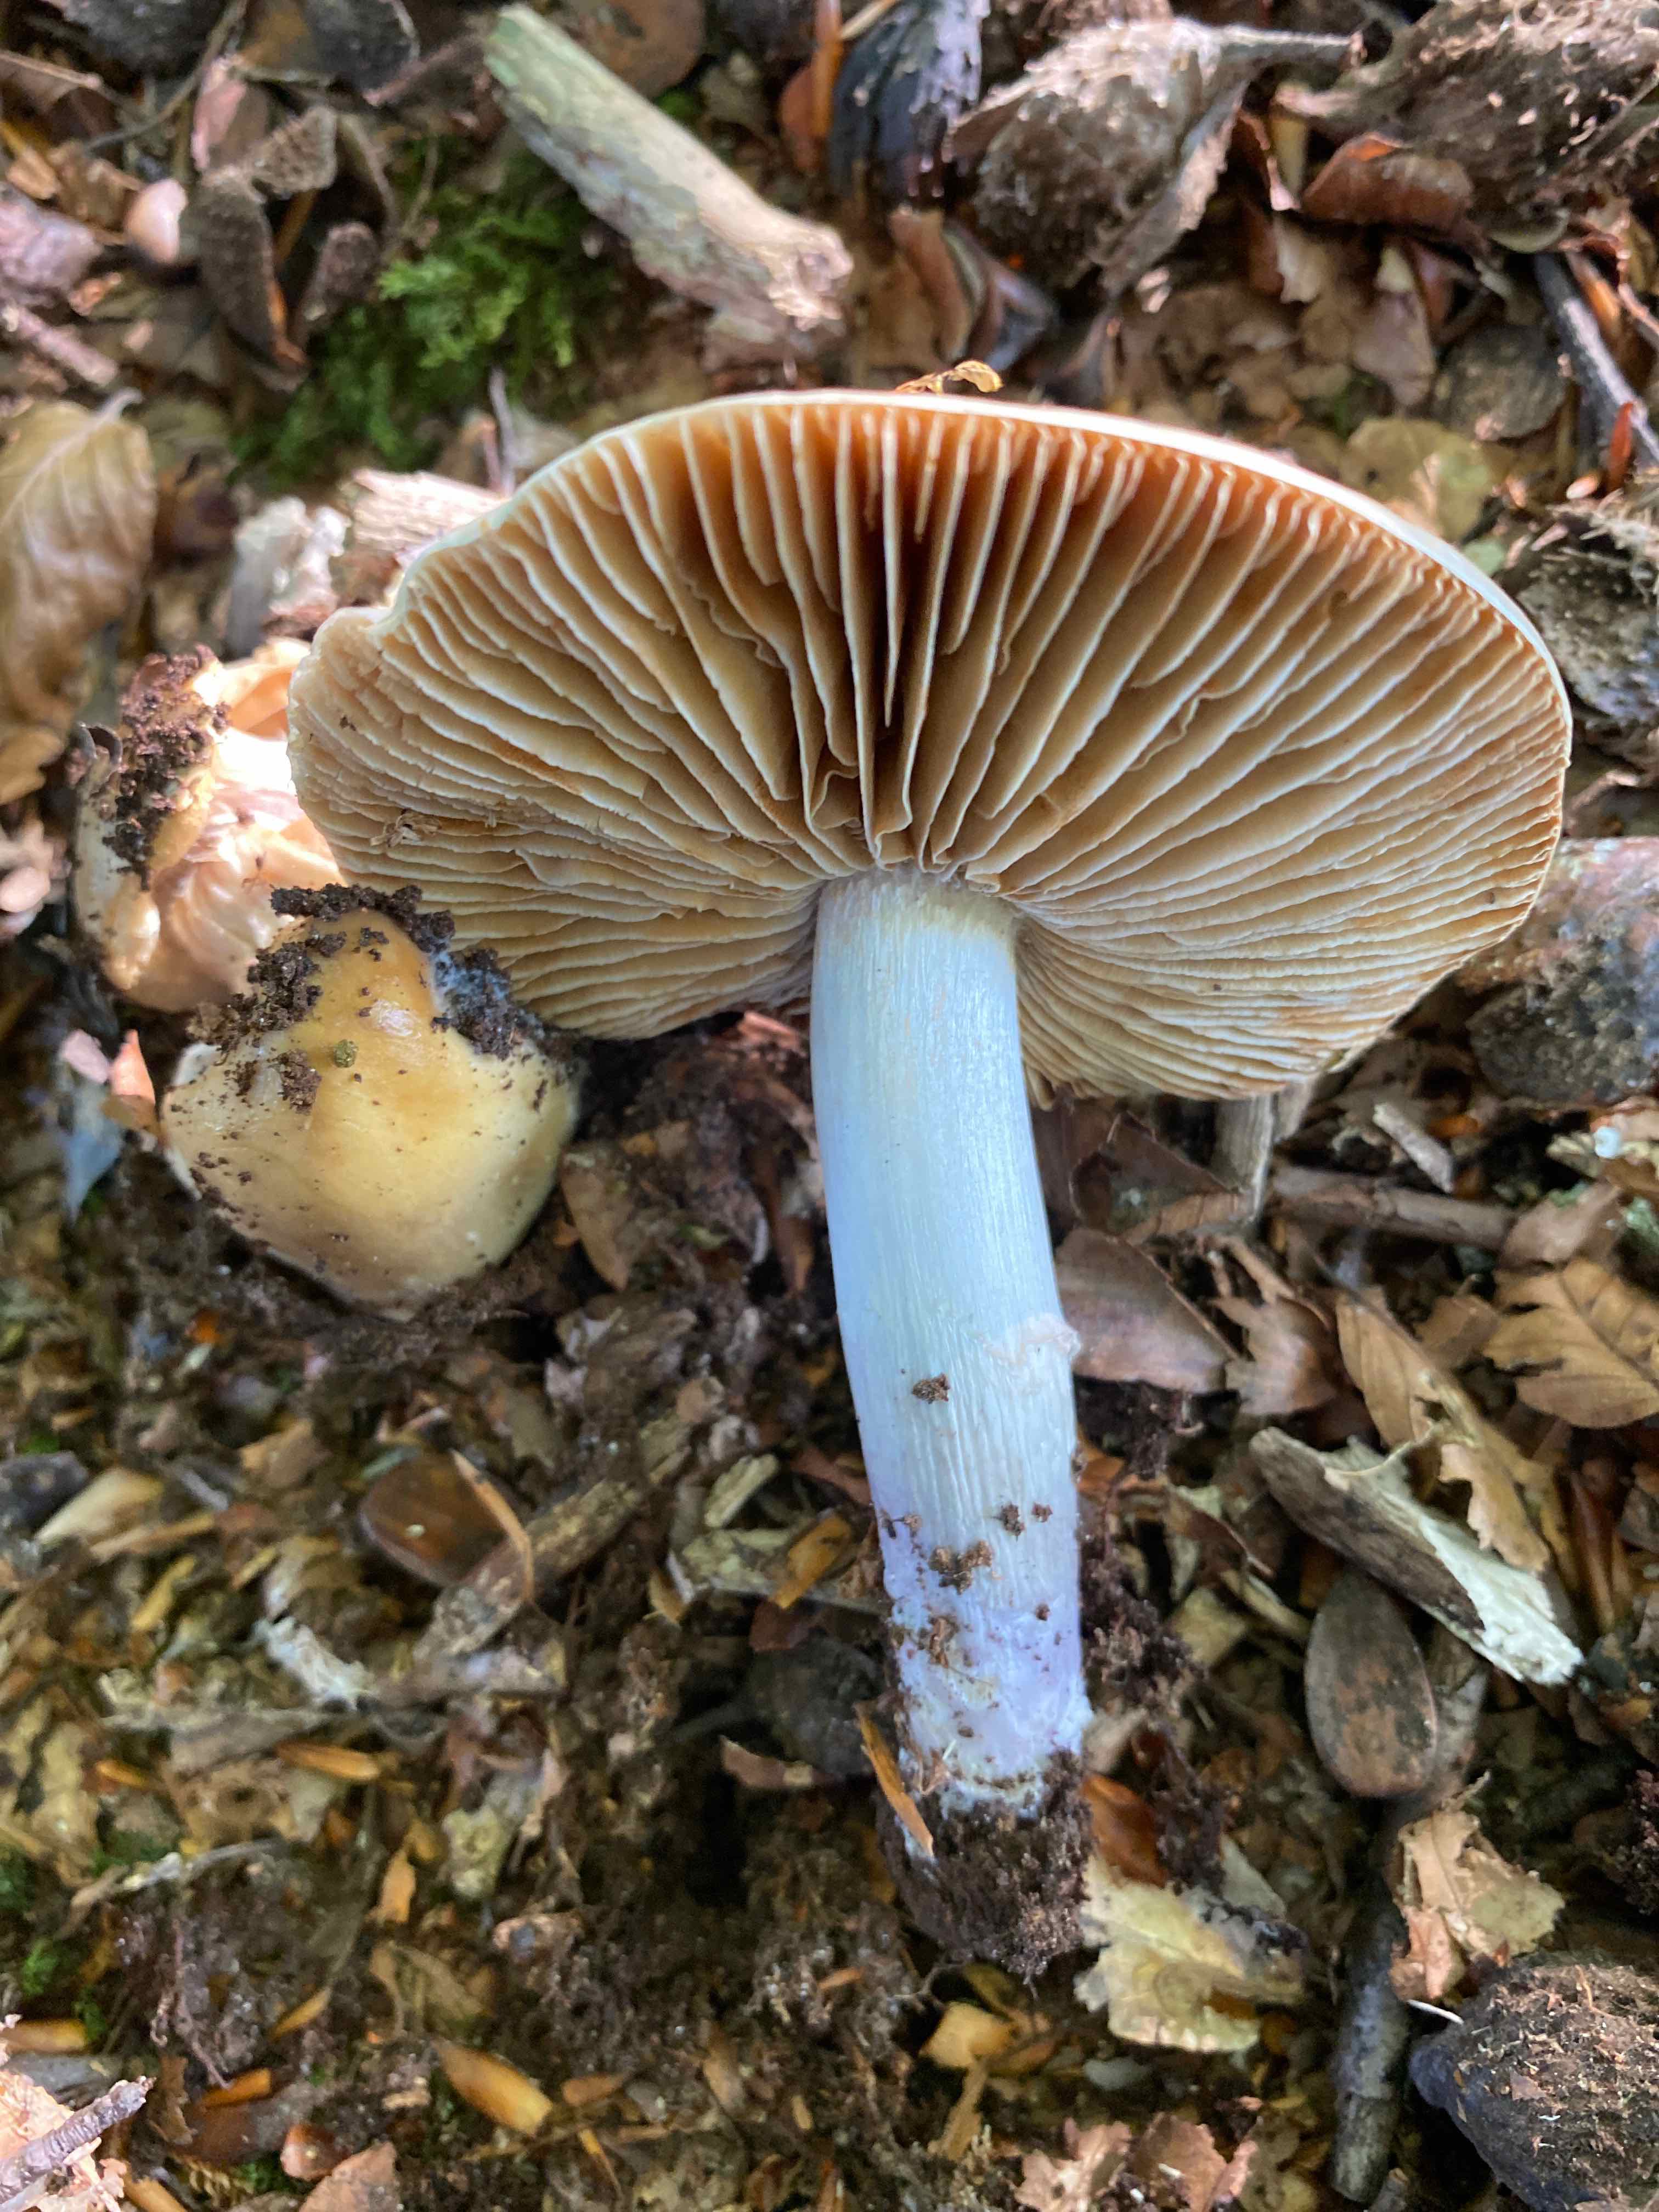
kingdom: Fungi
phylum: Basidiomycota
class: Agaricomycetes
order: Agaricales
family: Cortinariaceae
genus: Cortinarius
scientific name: Cortinarius elatior
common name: høj slørhat
